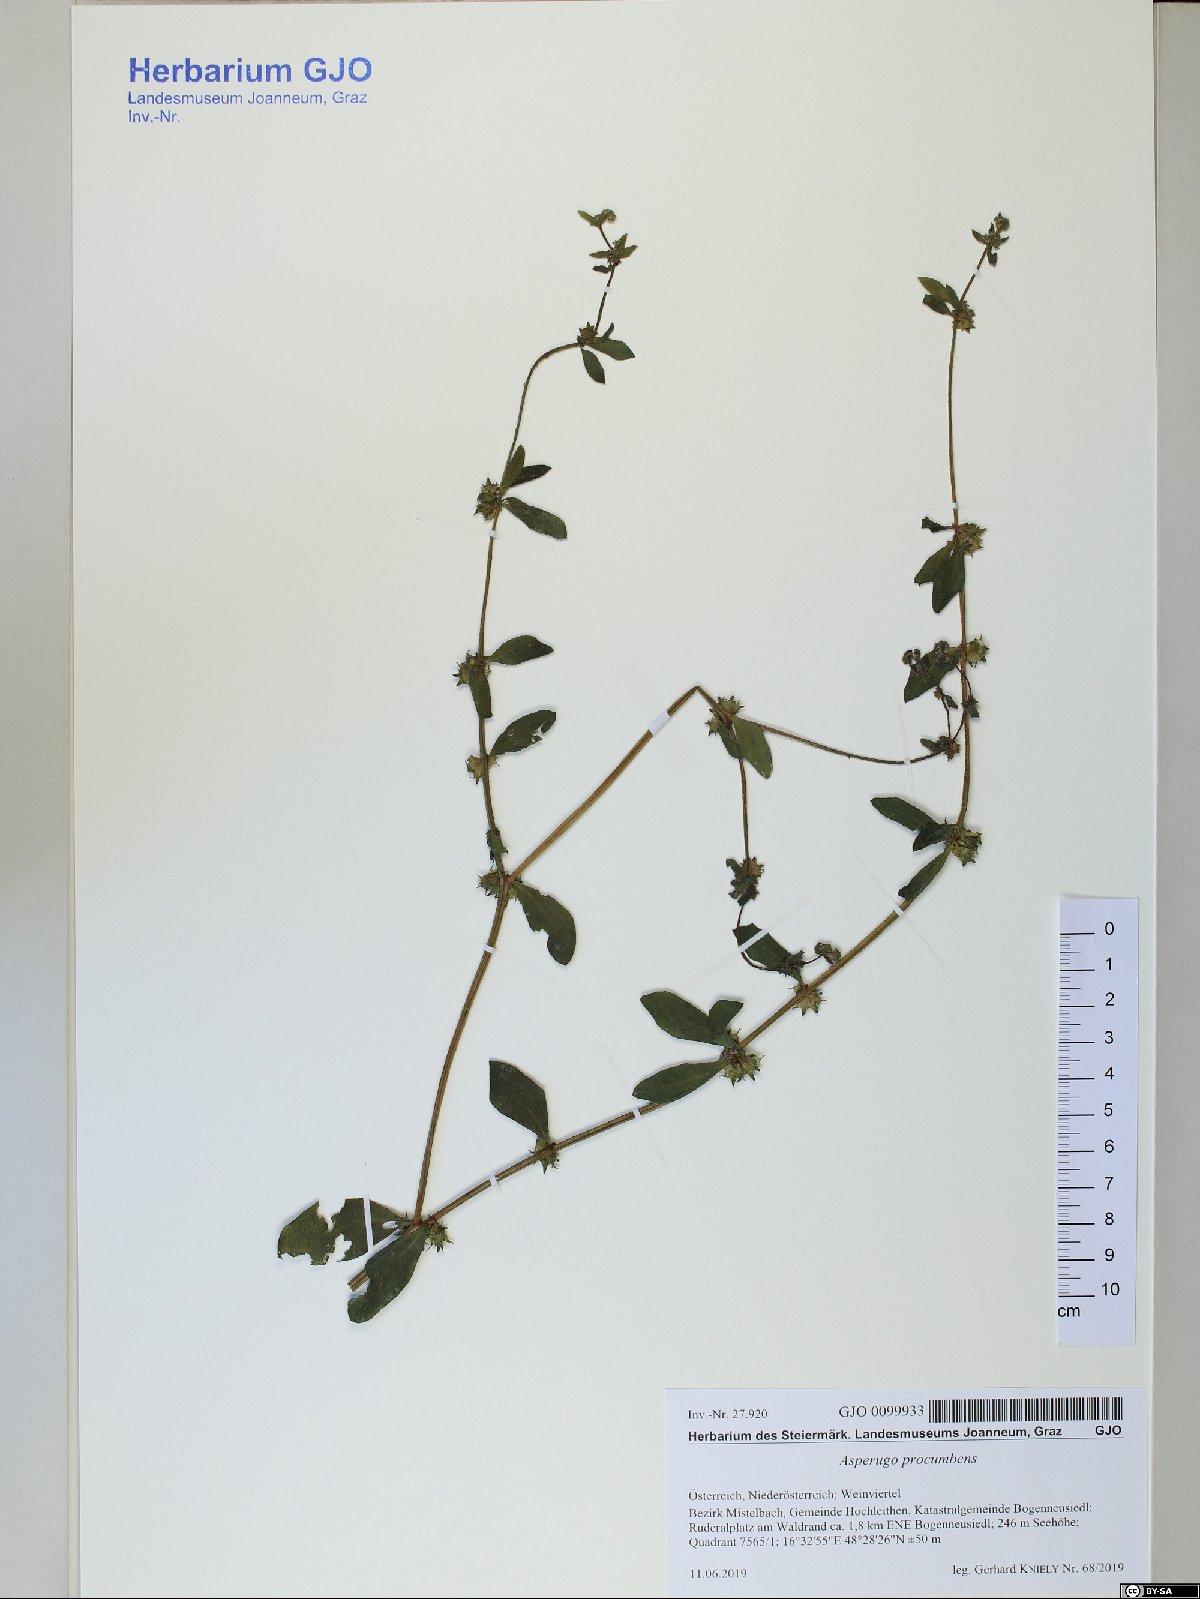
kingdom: Plantae
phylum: Tracheophyta
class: Magnoliopsida
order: Boraginales
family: Boraginaceae
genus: Asperugo
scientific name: Asperugo procumbens
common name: Madwort
